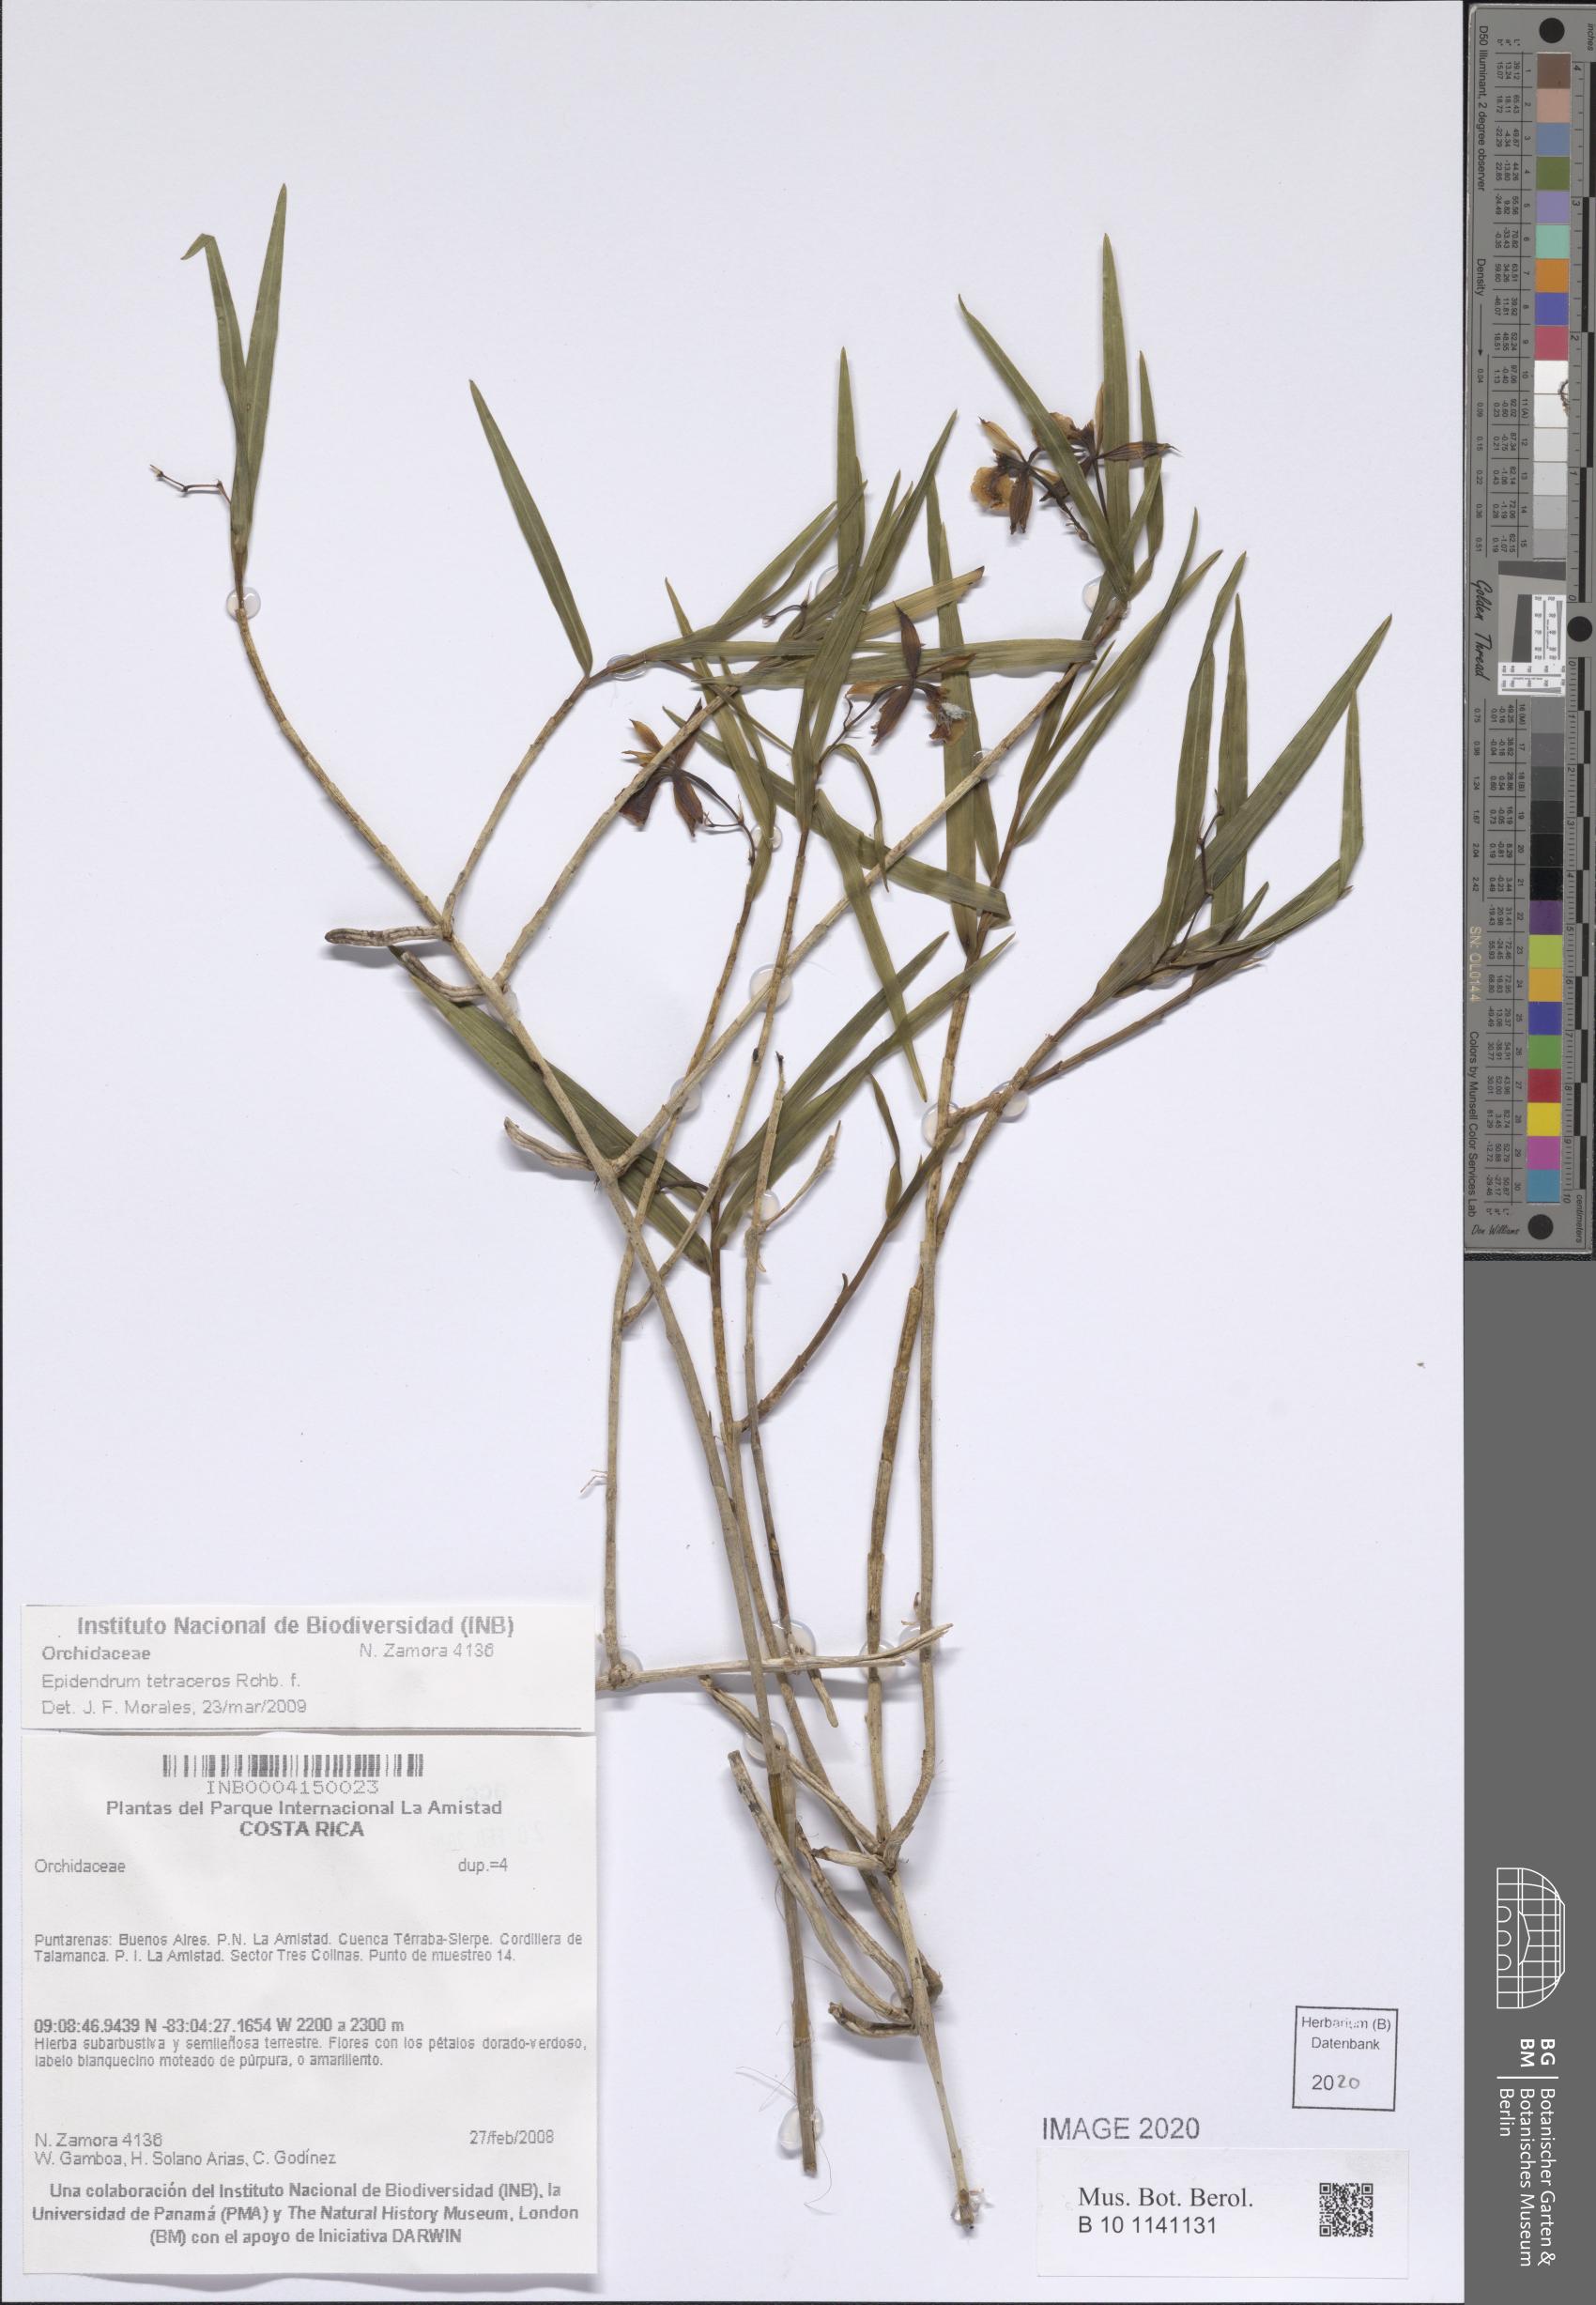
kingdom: Plantae
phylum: Tracheophyta
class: Liliopsida
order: Asparagales
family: Orchidaceae
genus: Epidendrum
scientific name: Epidendrum tetraceros
